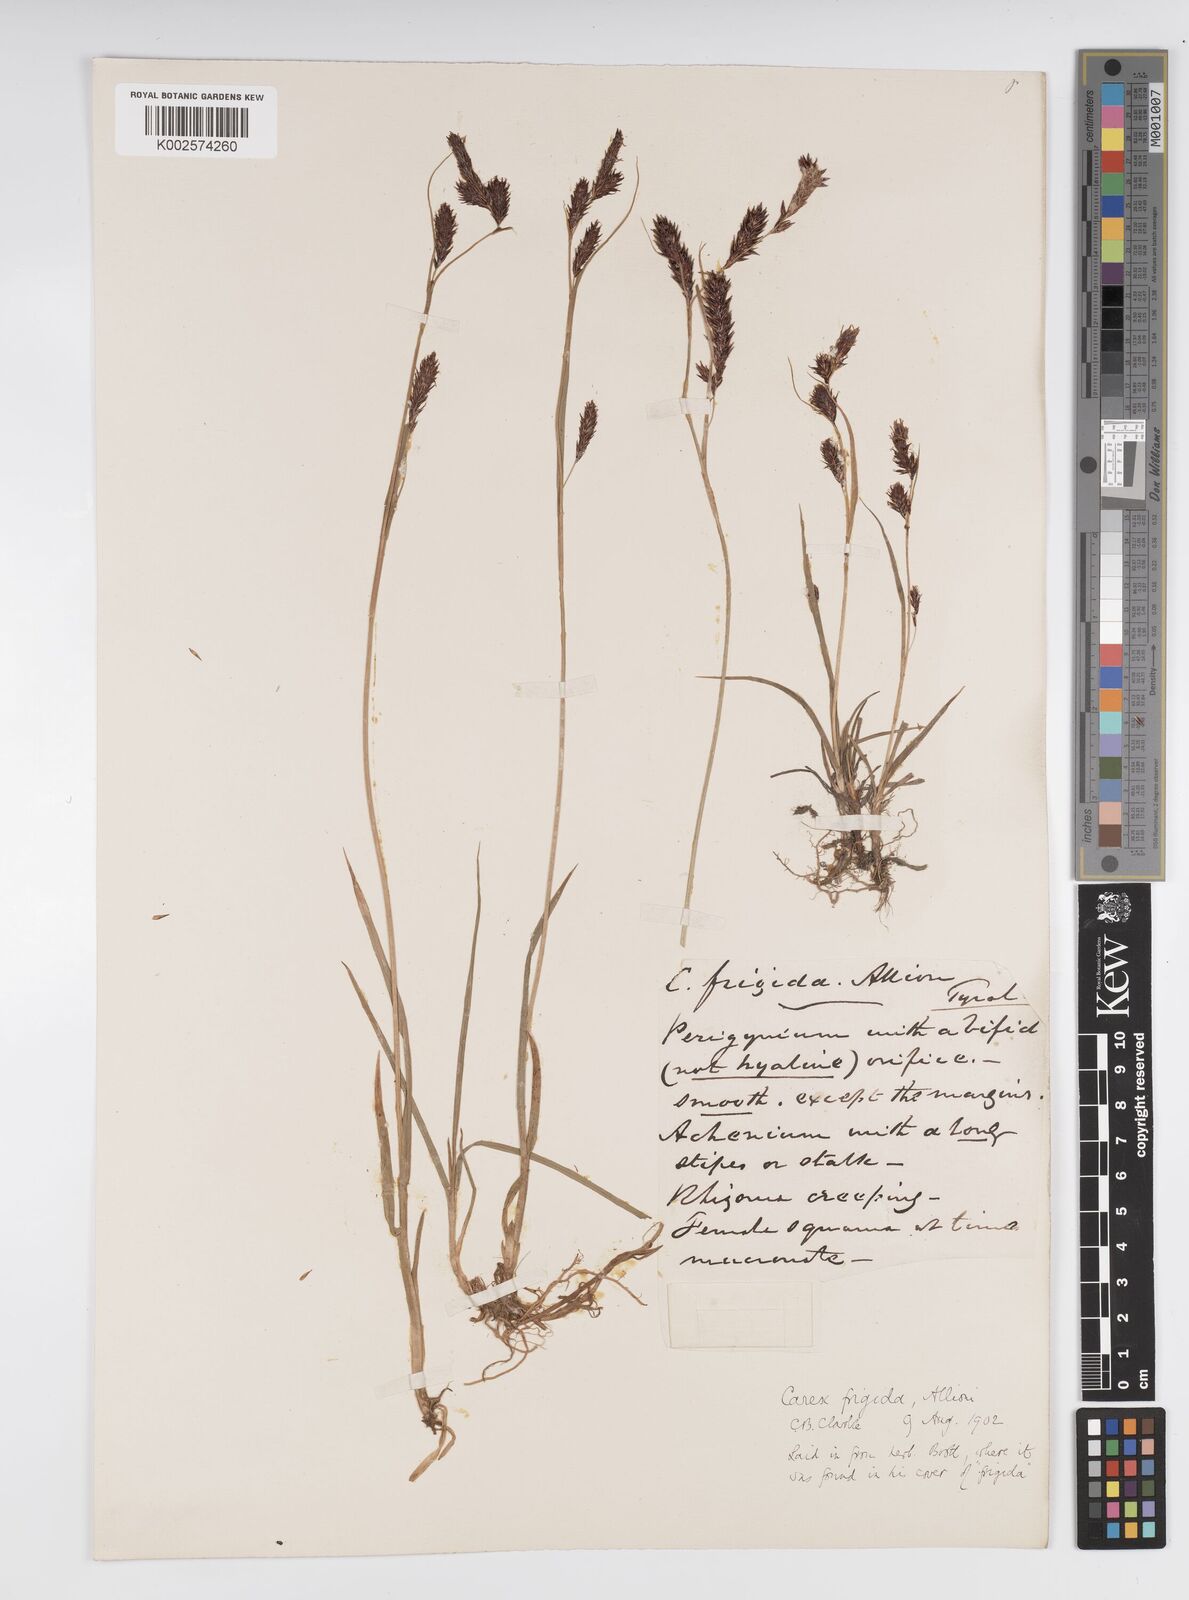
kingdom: Plantae
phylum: Tracheophyta
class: Liliopsida
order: Poales
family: Cyperaceae
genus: Carex
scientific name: Carex frigida
